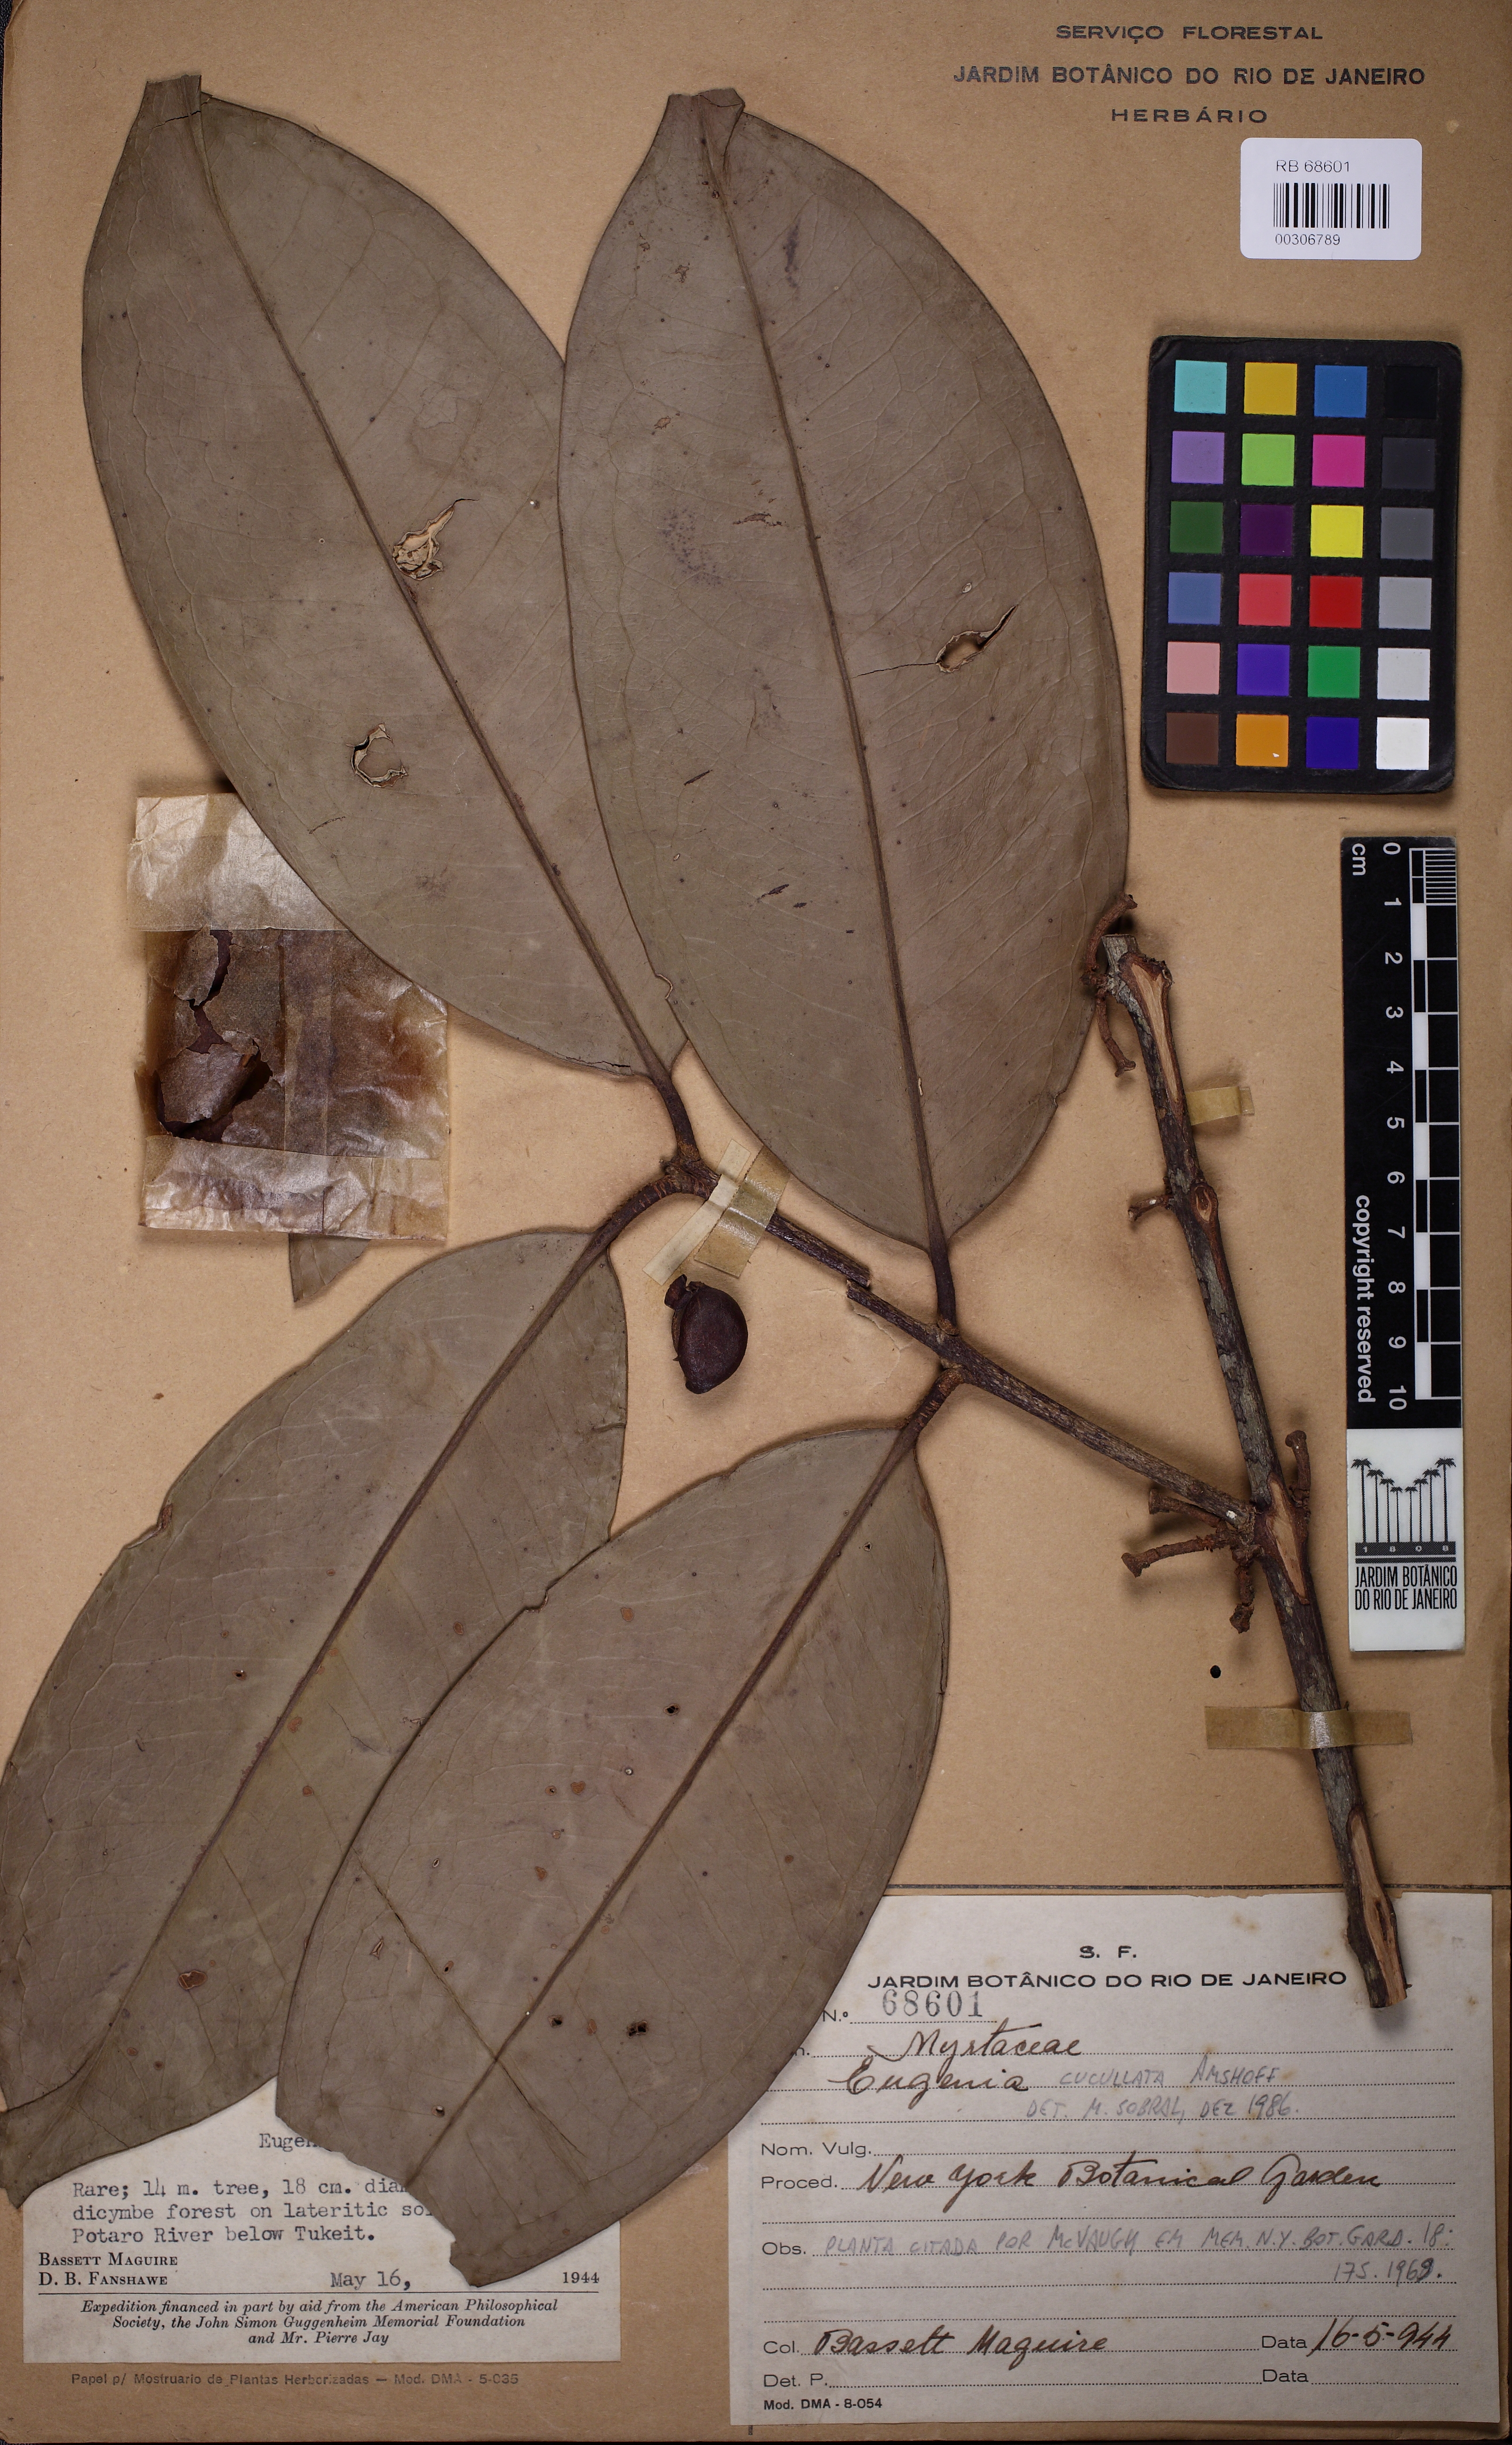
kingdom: Plantae
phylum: Tracheophyta
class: Magnoliopsida
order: Myrtales
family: Myrtaceae
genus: Eugenia
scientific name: Eugenia cucullata
